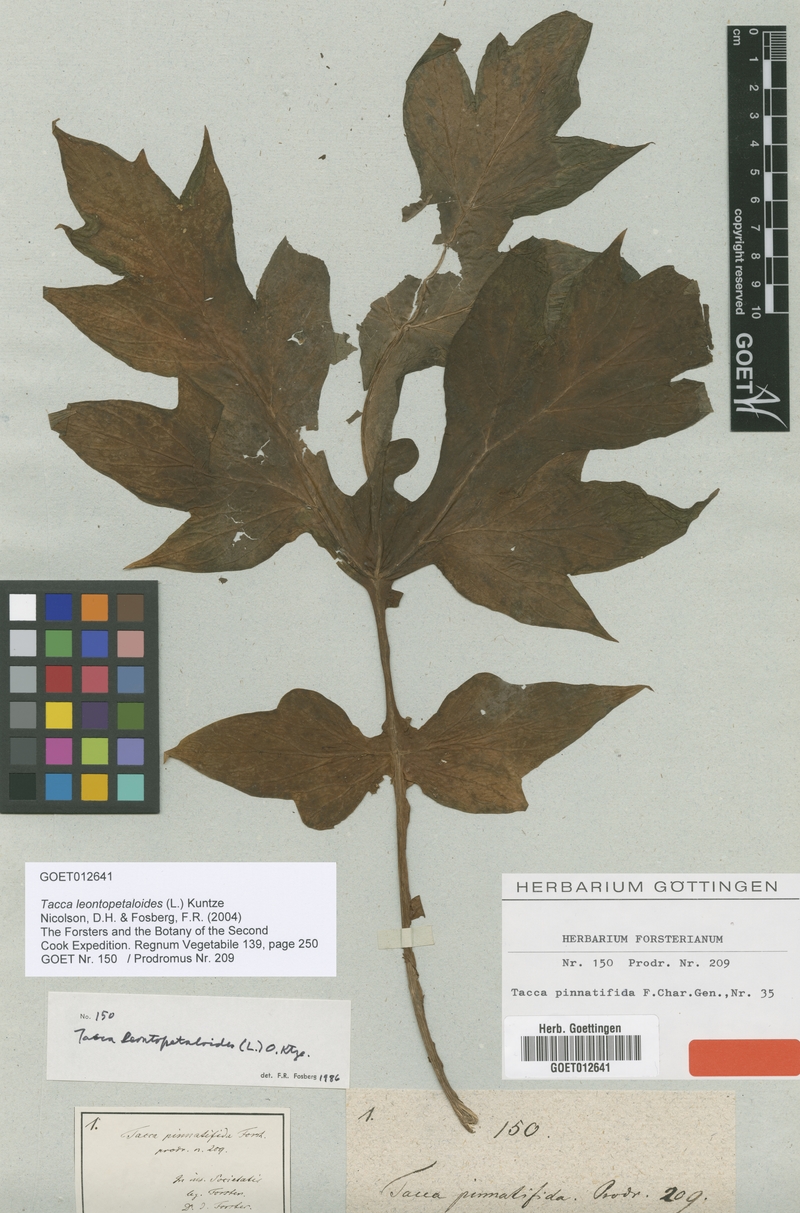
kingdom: Plantae
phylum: Tracheophyta
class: Liliopsida
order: Dioscoreales
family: Dioscoreaceae
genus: Tacca
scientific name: Tacca leontopetaloides
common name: Arrowroot
